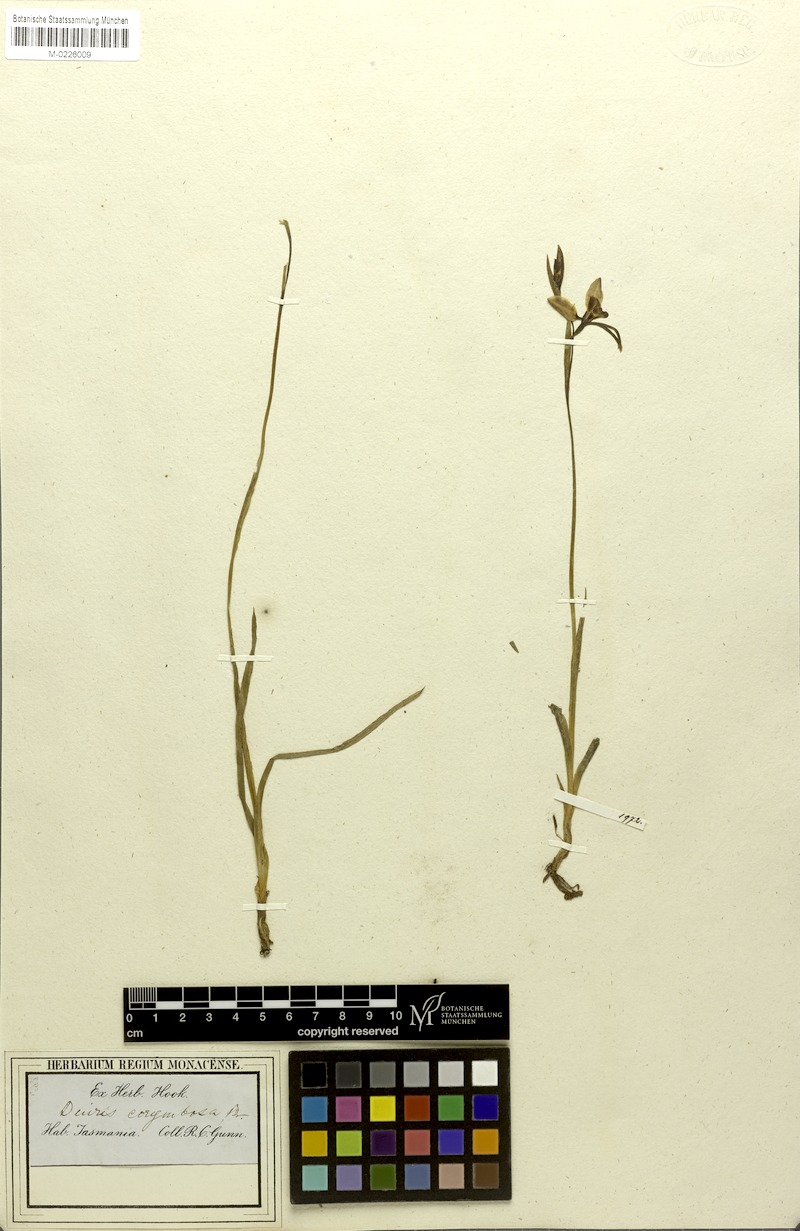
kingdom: Plantae
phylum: Tracheophyta
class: Liliopsida
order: Asparagales
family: Orchidaceae
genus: Diuris
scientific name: Diuris corymbosa
